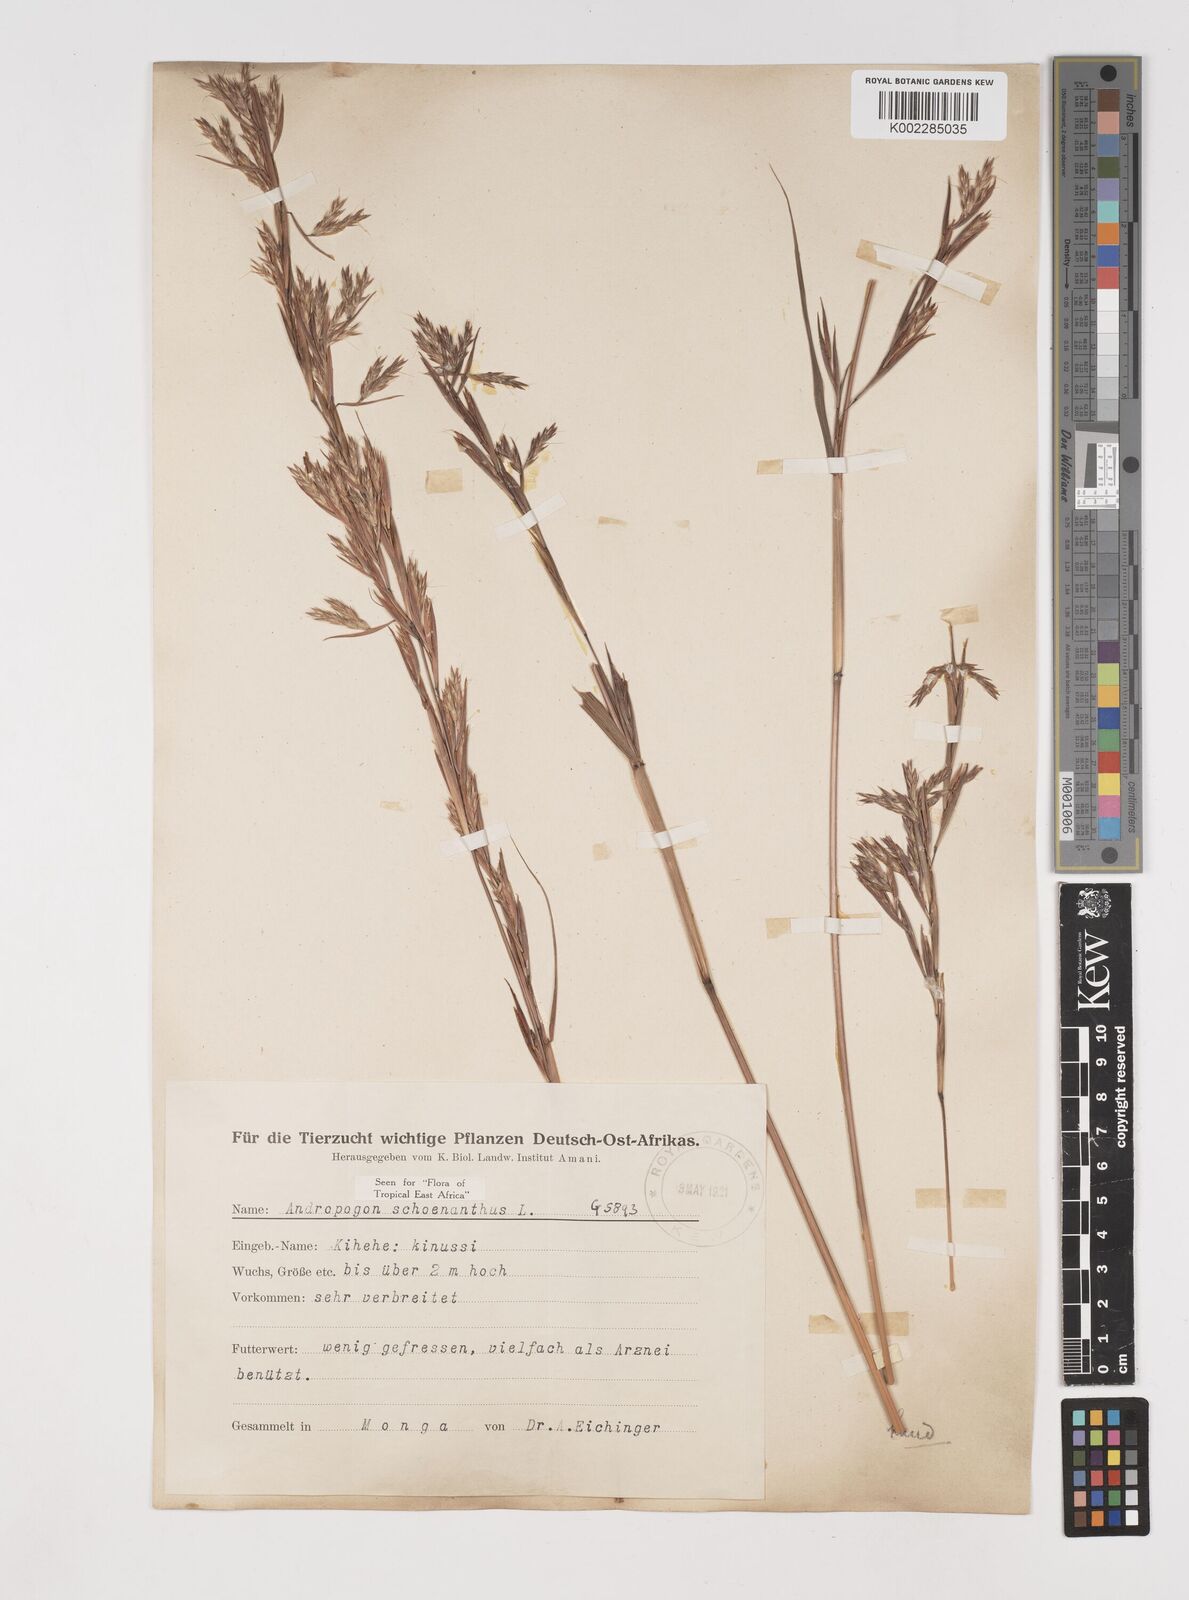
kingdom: Plantae
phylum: Tracheophyta
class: Liliopsida
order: Poales
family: Poaceae
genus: Cymbopogon
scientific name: Cymbopogon nardus
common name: Giant turpentine grass
